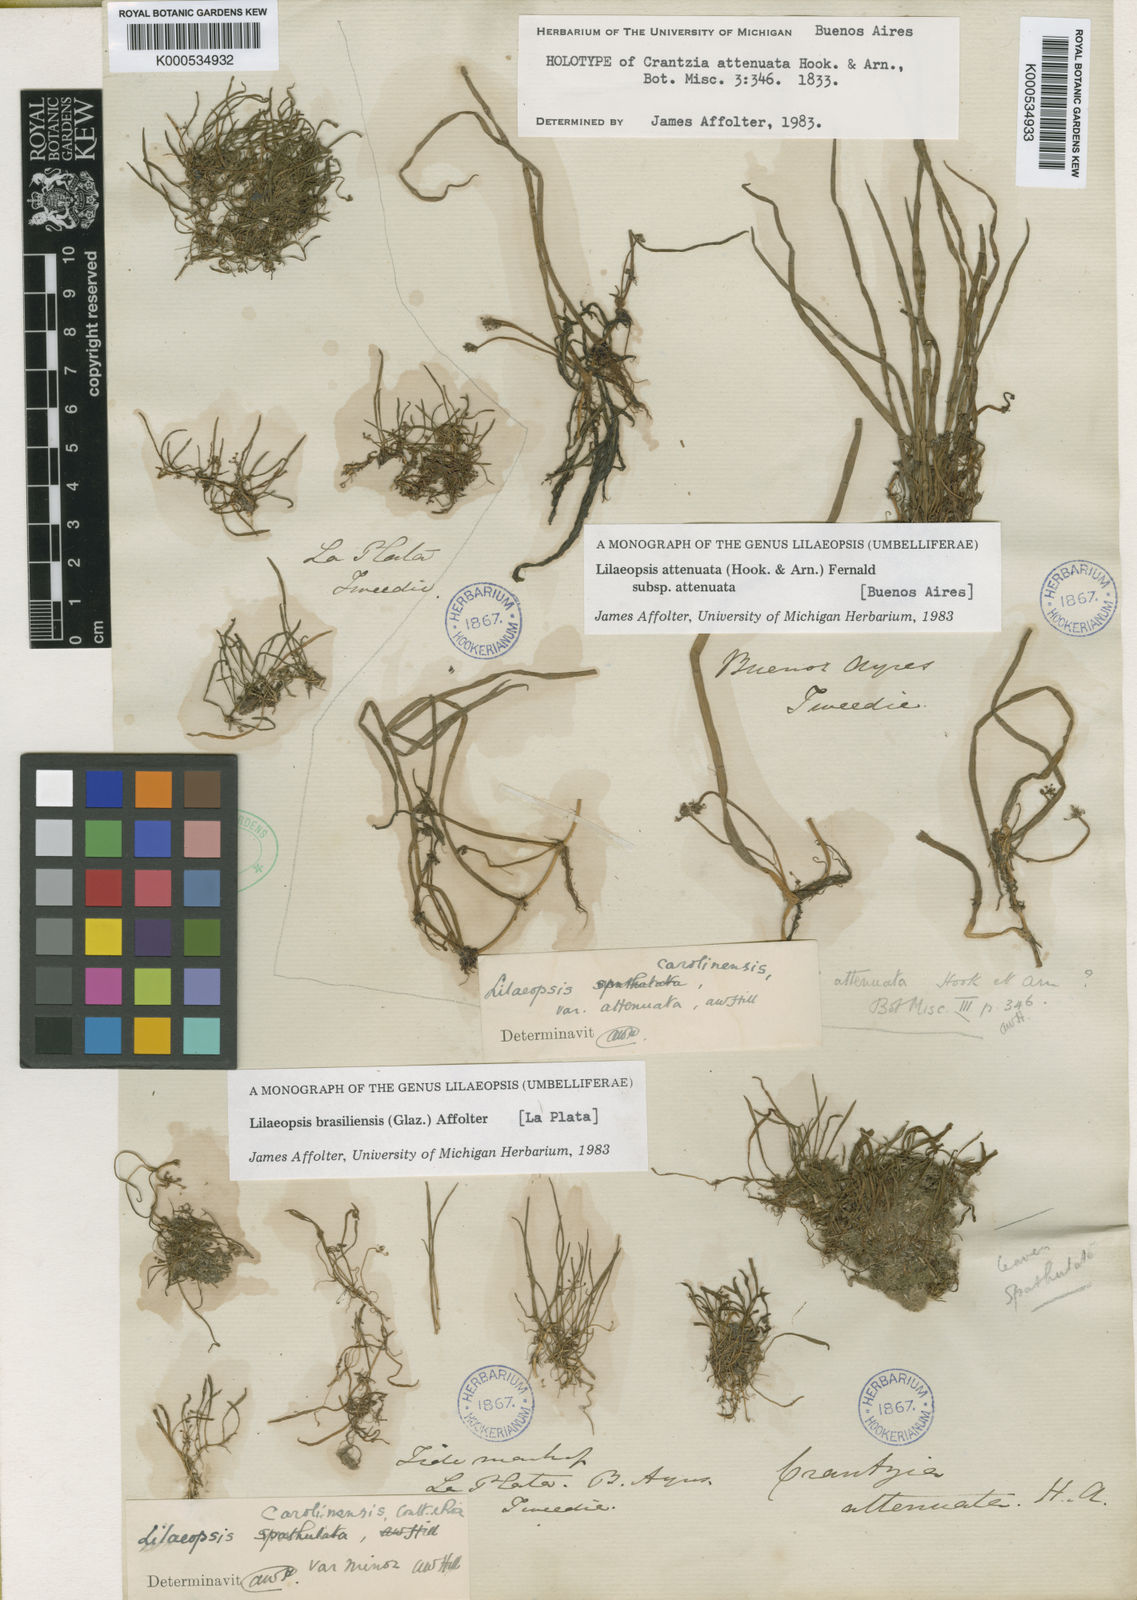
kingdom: Plantae
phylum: Tracheophyta
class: Magnoliopsida
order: Apiales
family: Apiaceae
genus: Lilaeopsis
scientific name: Lilaeopsis attenuata
